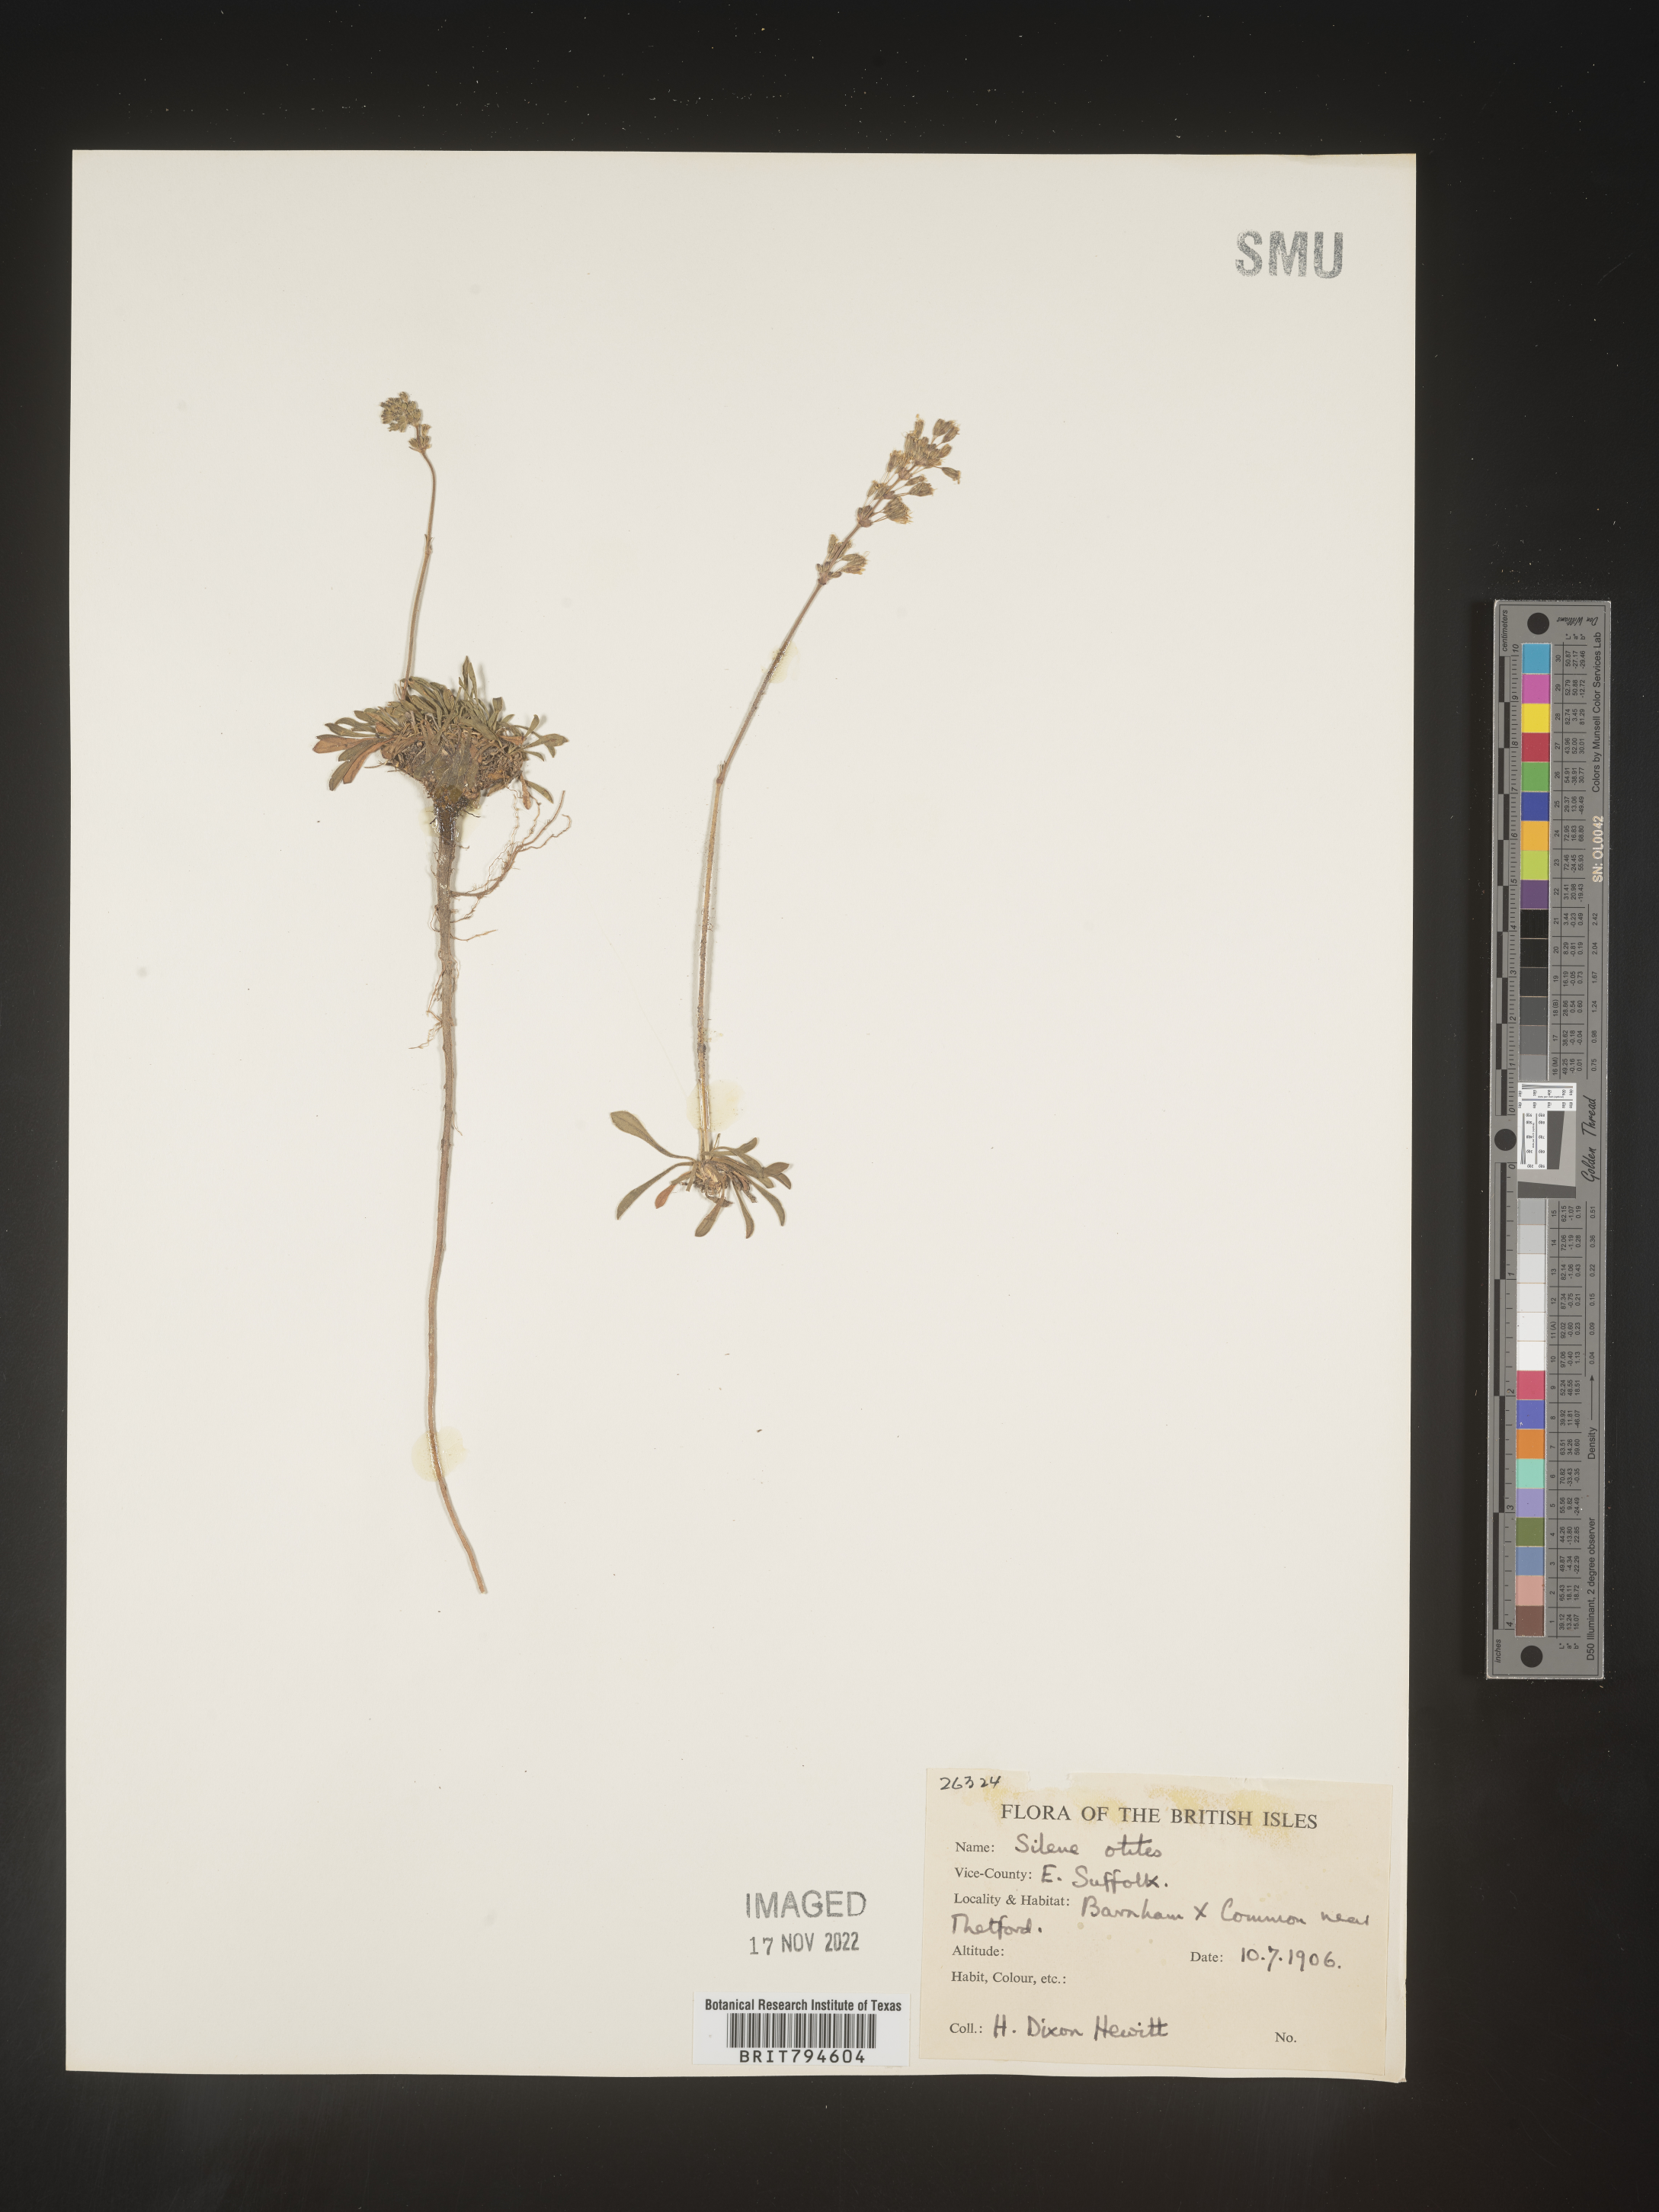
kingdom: Plantae
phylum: Tracheophyta
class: Magnoliopsida
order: Caryophyllales
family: Caryophyllaceae
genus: Silene
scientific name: Silene otites
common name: Spanish catchfly
